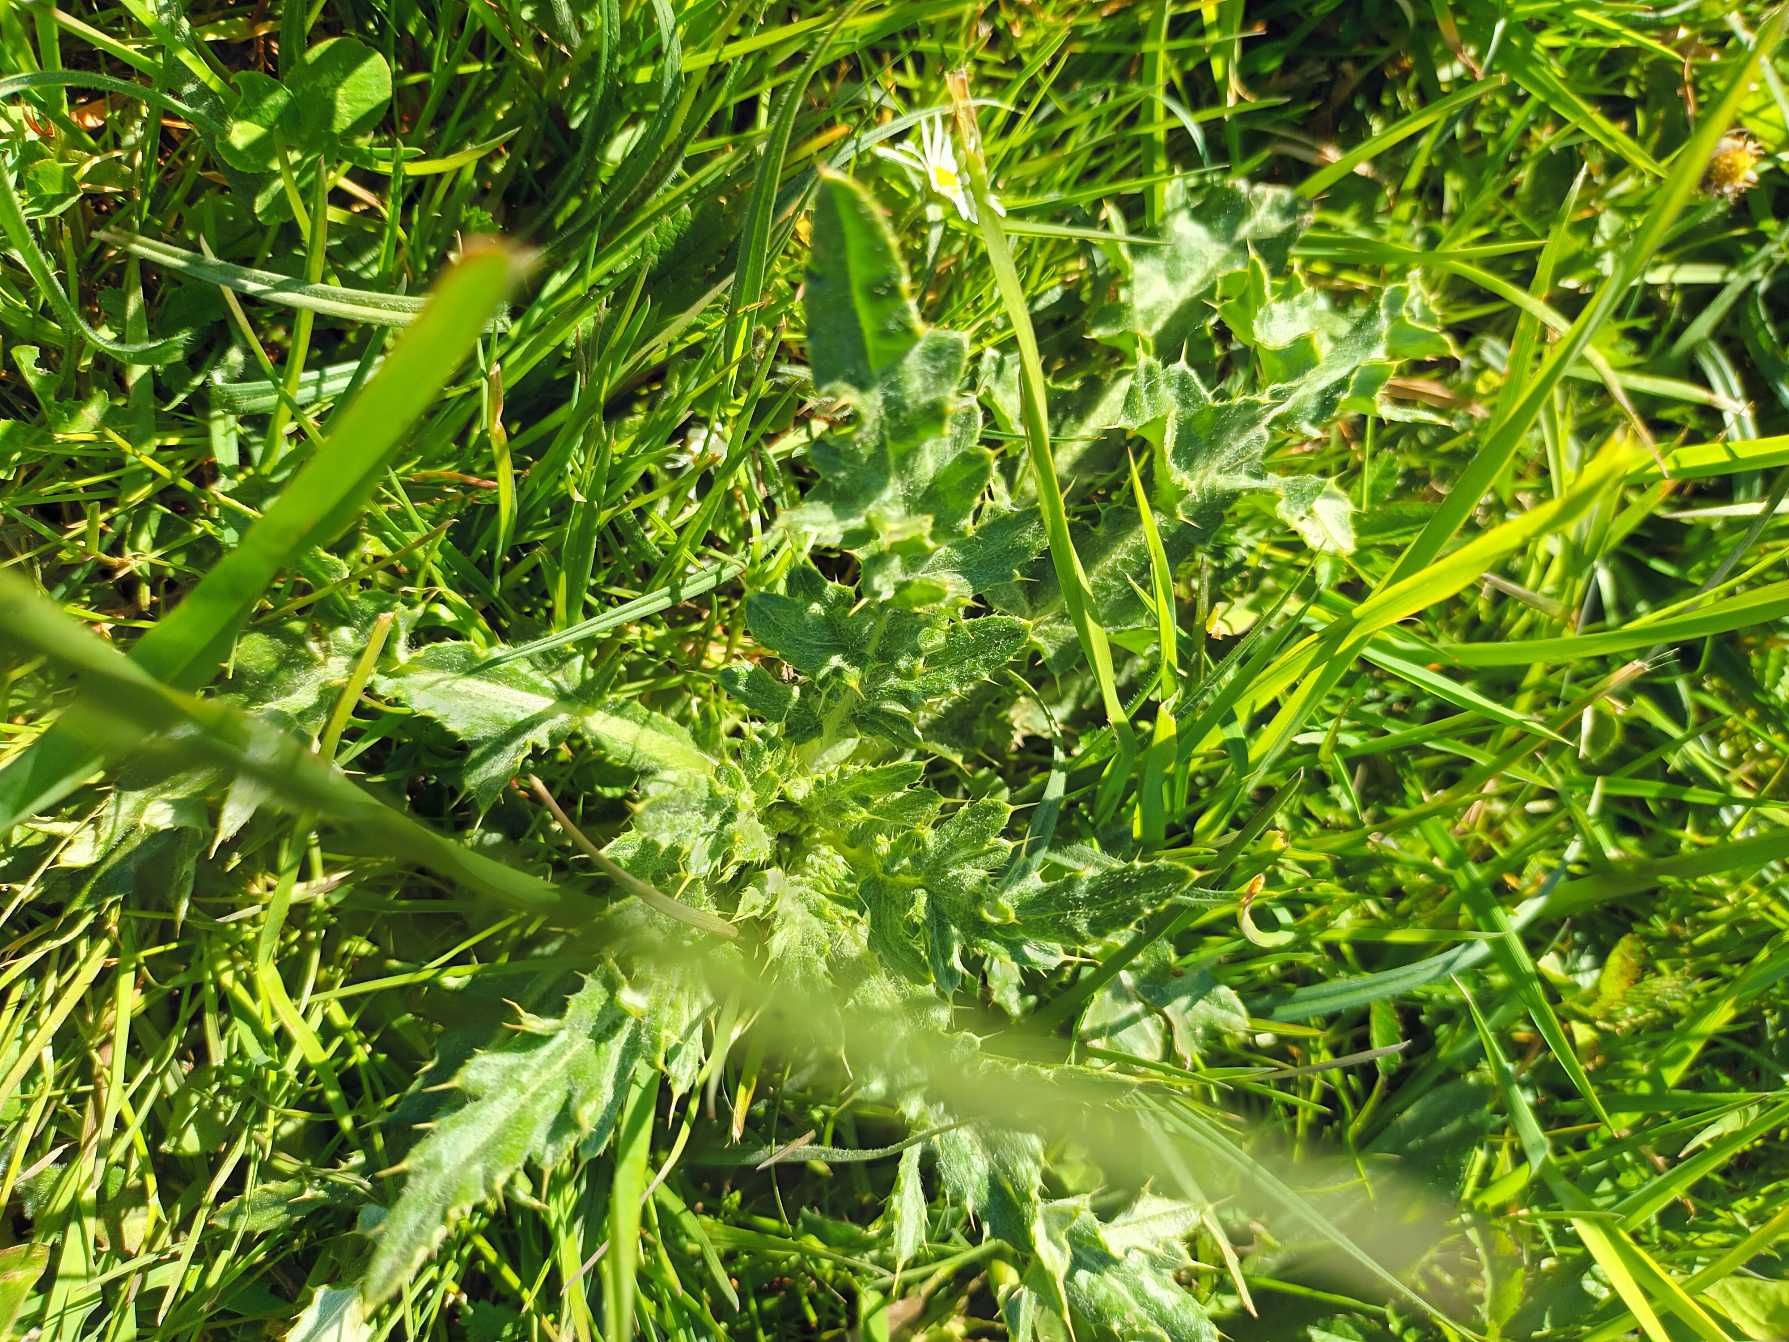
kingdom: Plantae
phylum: Tracheophyta
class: Magnoliopsida
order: Asterales
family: Asteraceae
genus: Cirsium
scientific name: Cirsium arvense
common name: Ager-tidsel
